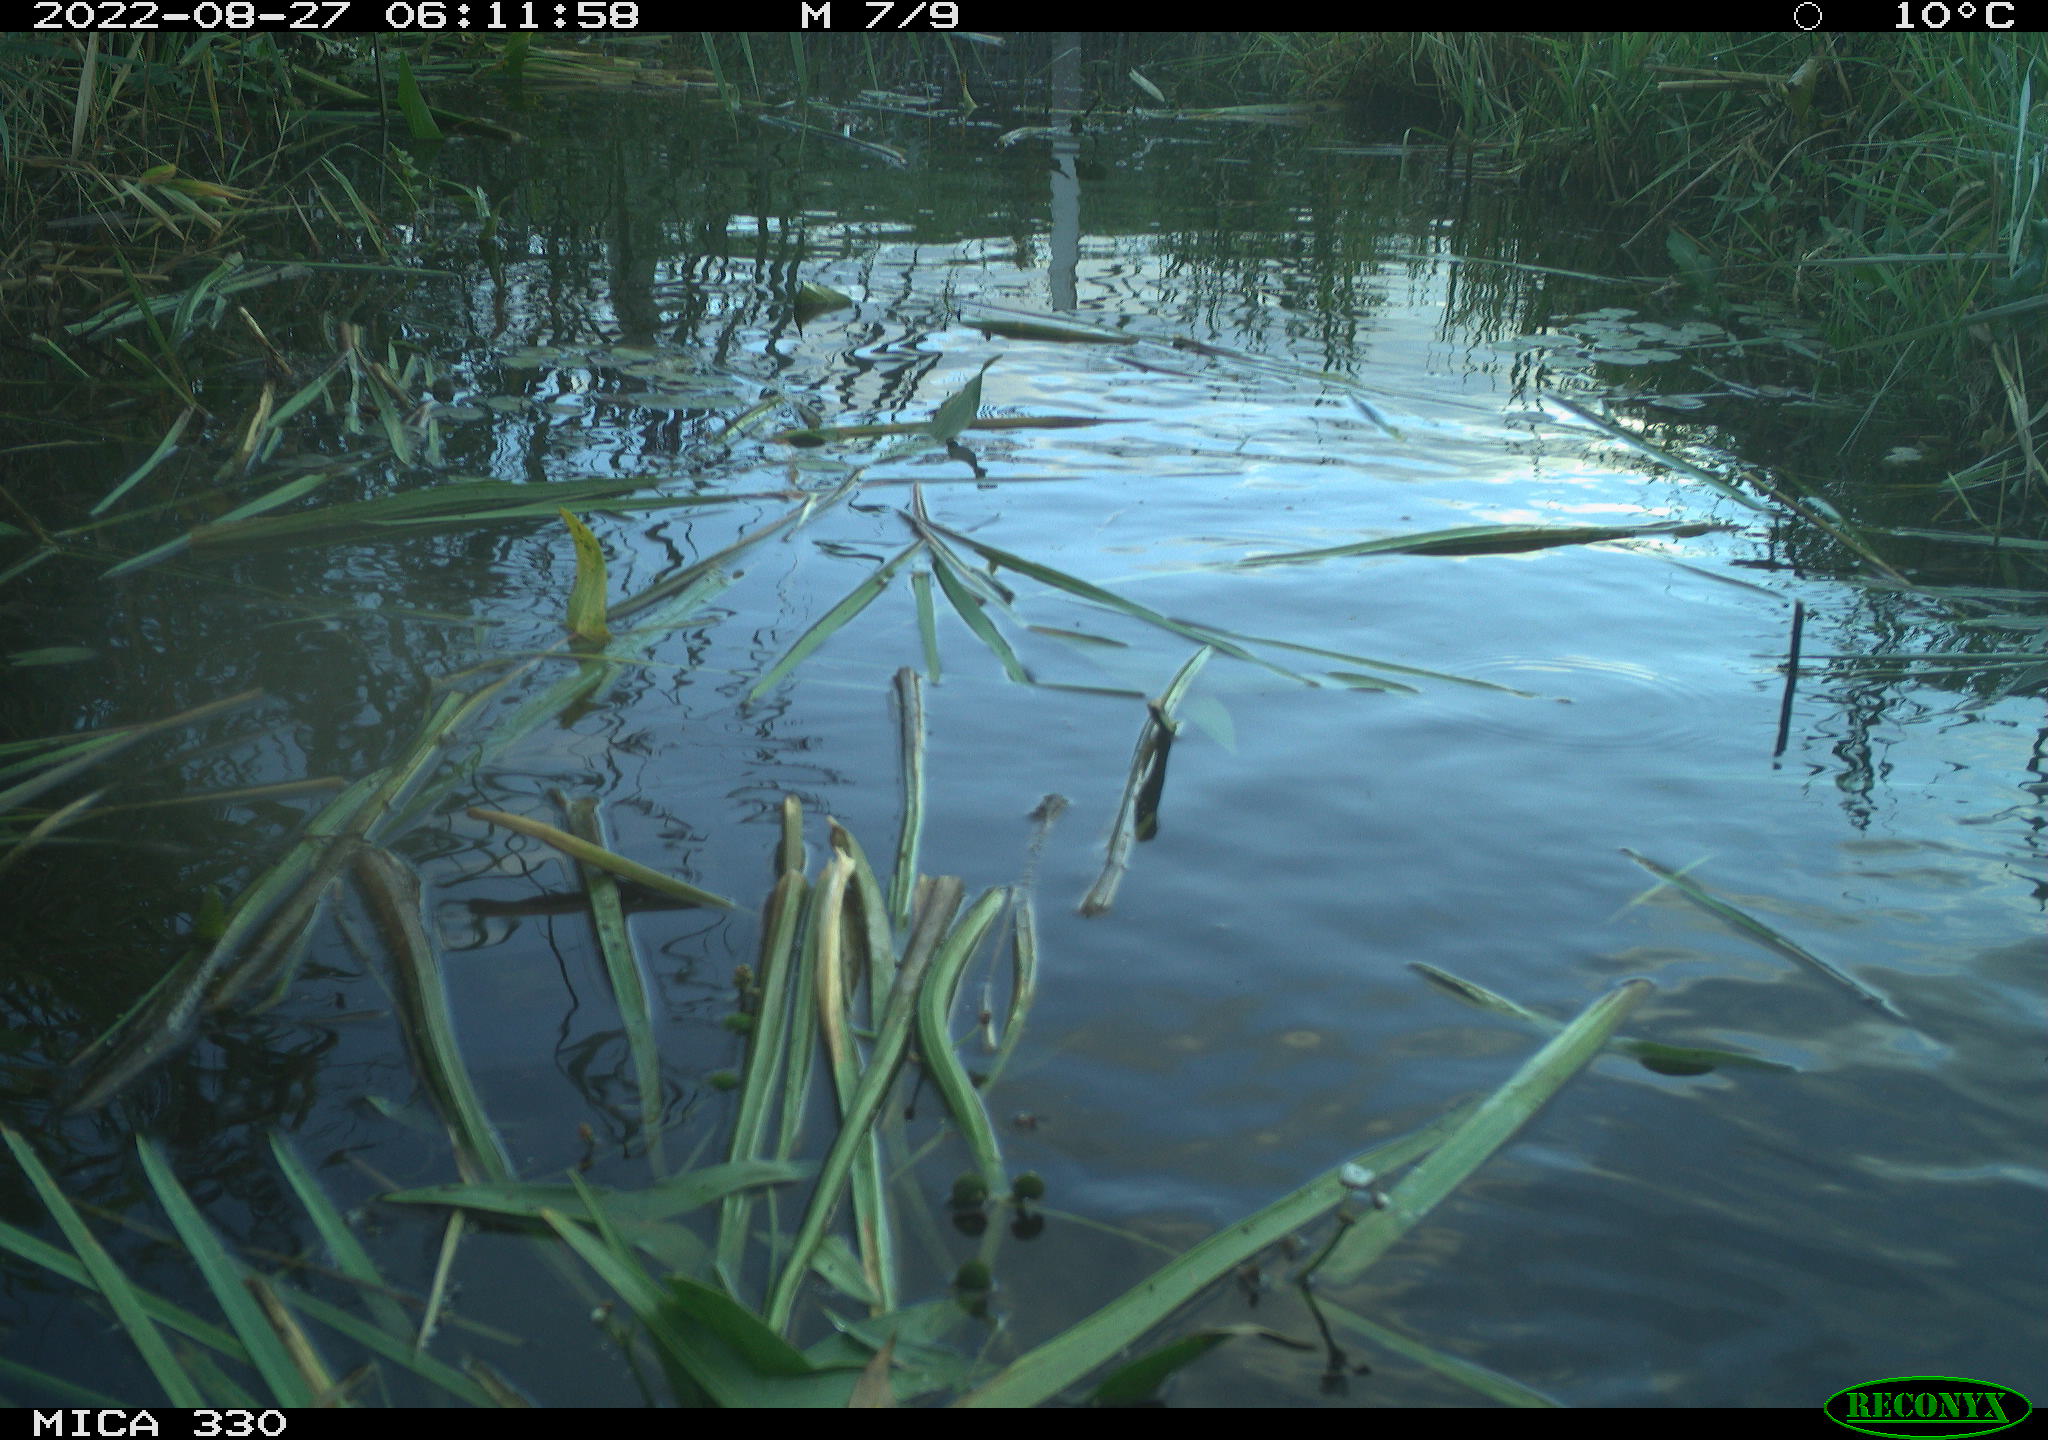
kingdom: Animalia
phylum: Chordata
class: Aves
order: Anseriformes
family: Anatidae
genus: Mareca
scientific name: Mareca strepera
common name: Gadwall
